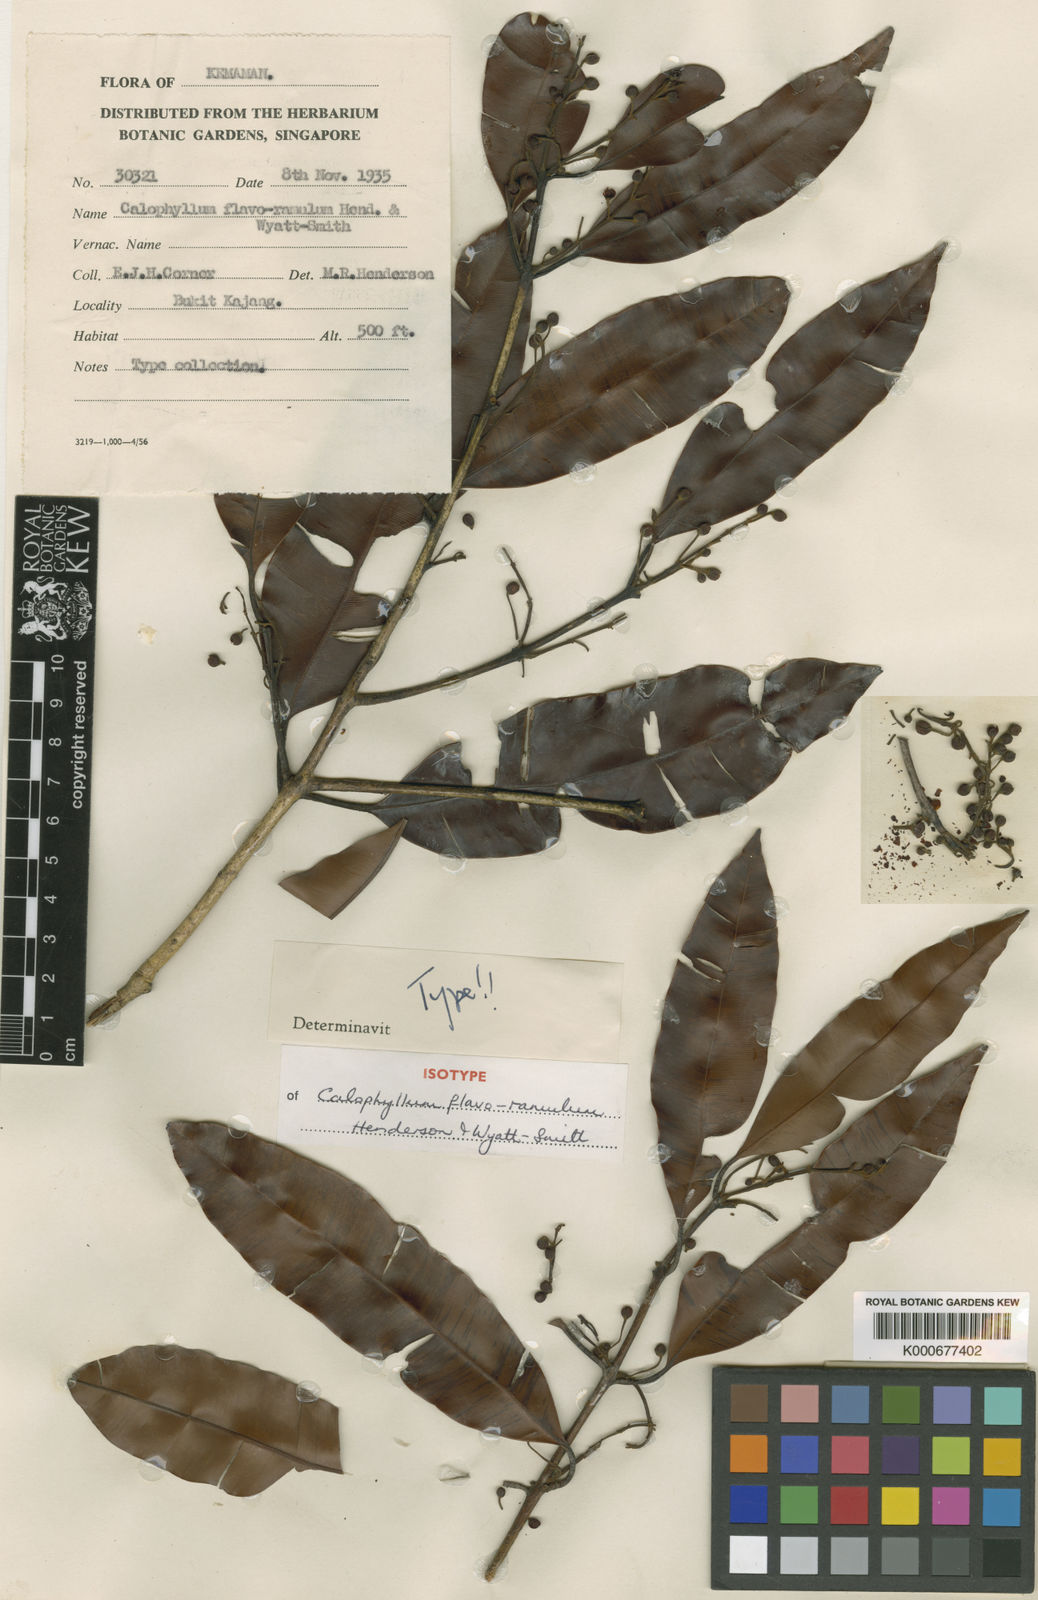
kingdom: Plantae
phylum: Tracheophyta
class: Magnoliopsida
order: Malpighiales
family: Calophyllaceae
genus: Calophyllum
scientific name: Calophyllum flavoramulum
